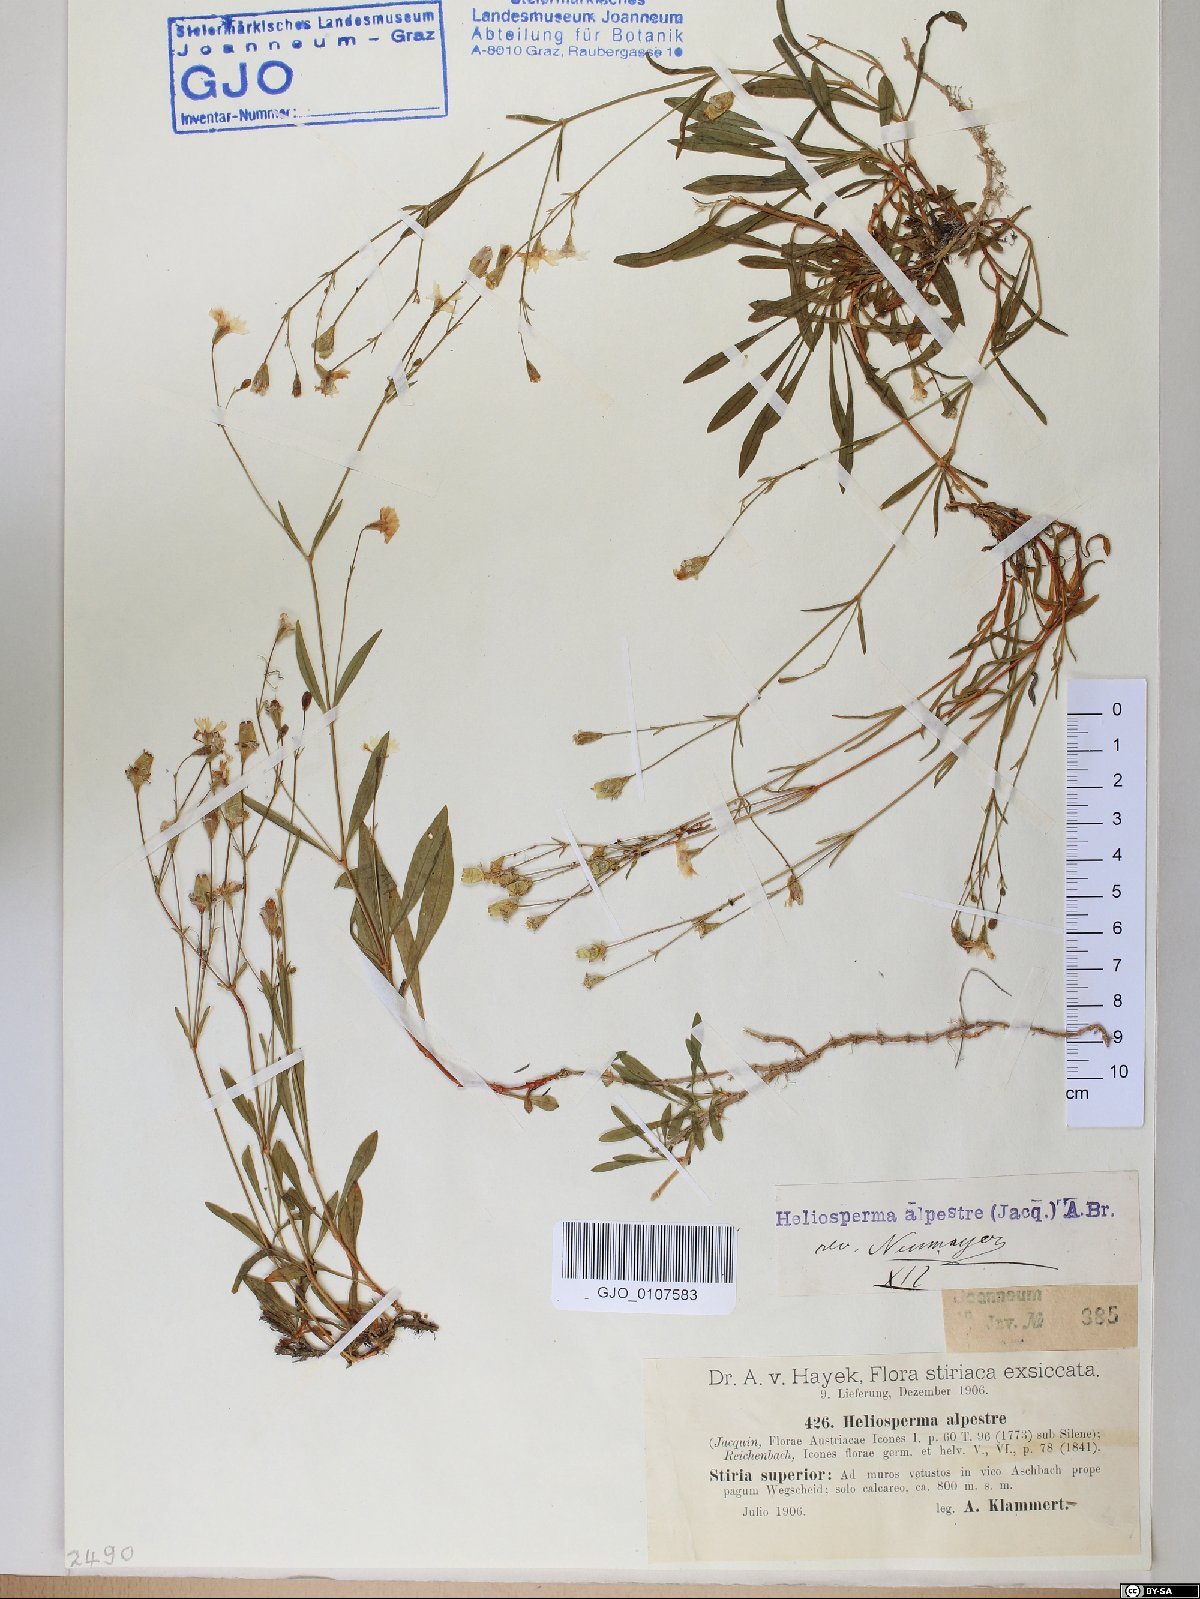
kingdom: Plantae
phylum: Tracheophyta
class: Magnoliopsida
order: Caryophyllales
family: Caryophyllaceae
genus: Heliosperma
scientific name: Heliosperma alpestre
